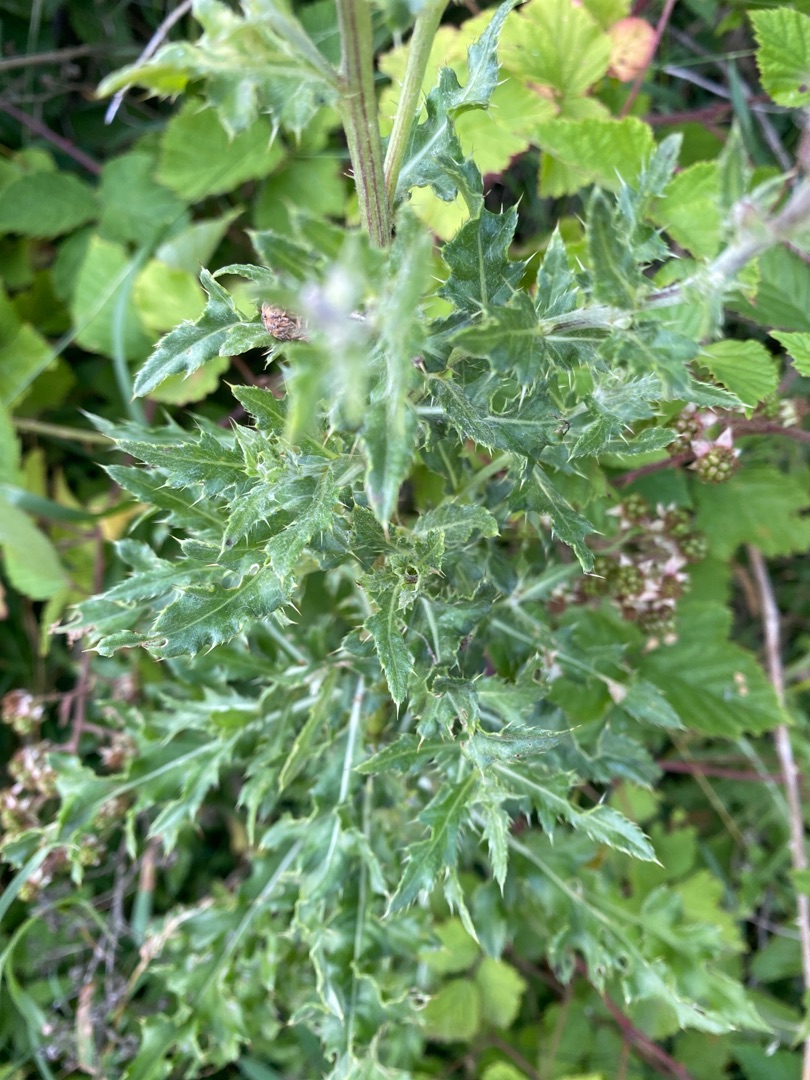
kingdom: Plantae
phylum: Tracheophyta
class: Magnoliopsida
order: Asterales
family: Asteraceae
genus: Cirsium
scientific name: Cirsium arvense
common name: Ager-tidsel
